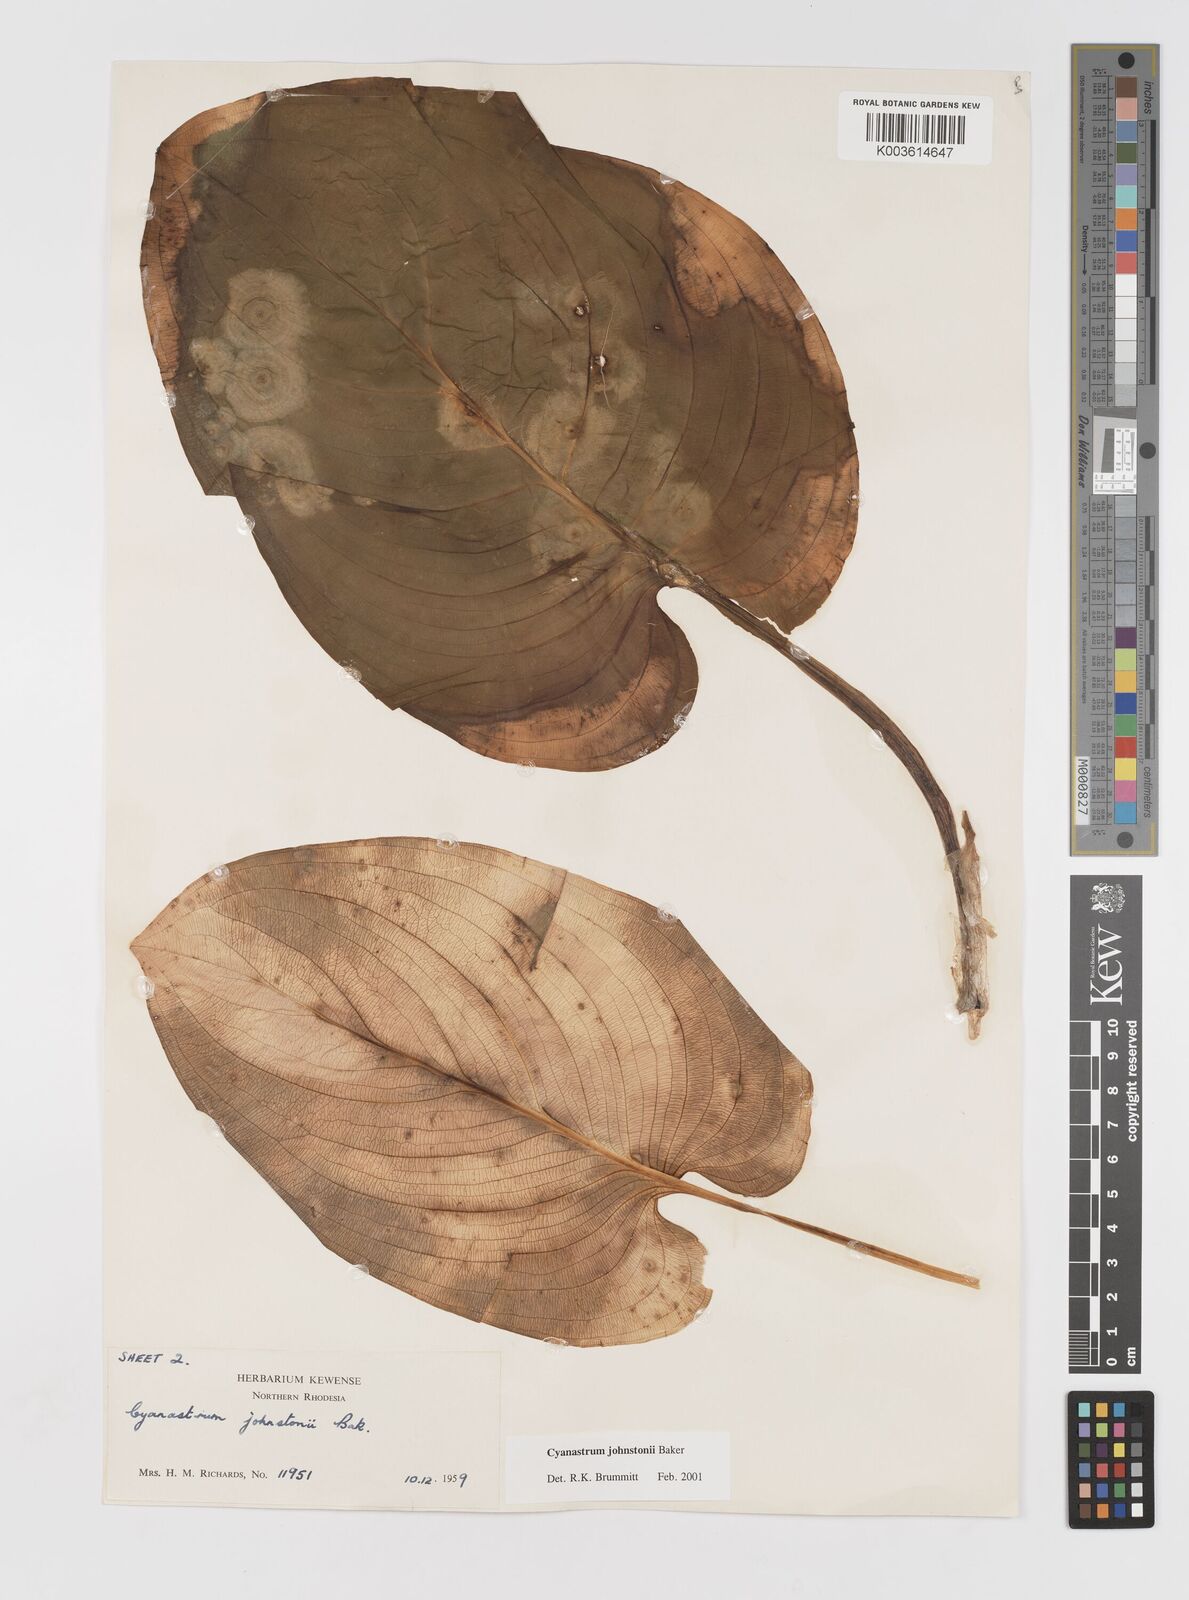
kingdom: Plantae
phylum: Tracheophyta
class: Liliopsida
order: Asparagales
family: Tecophilaeaceae
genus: Cyanastrum
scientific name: Cyanastrum johnstonii
